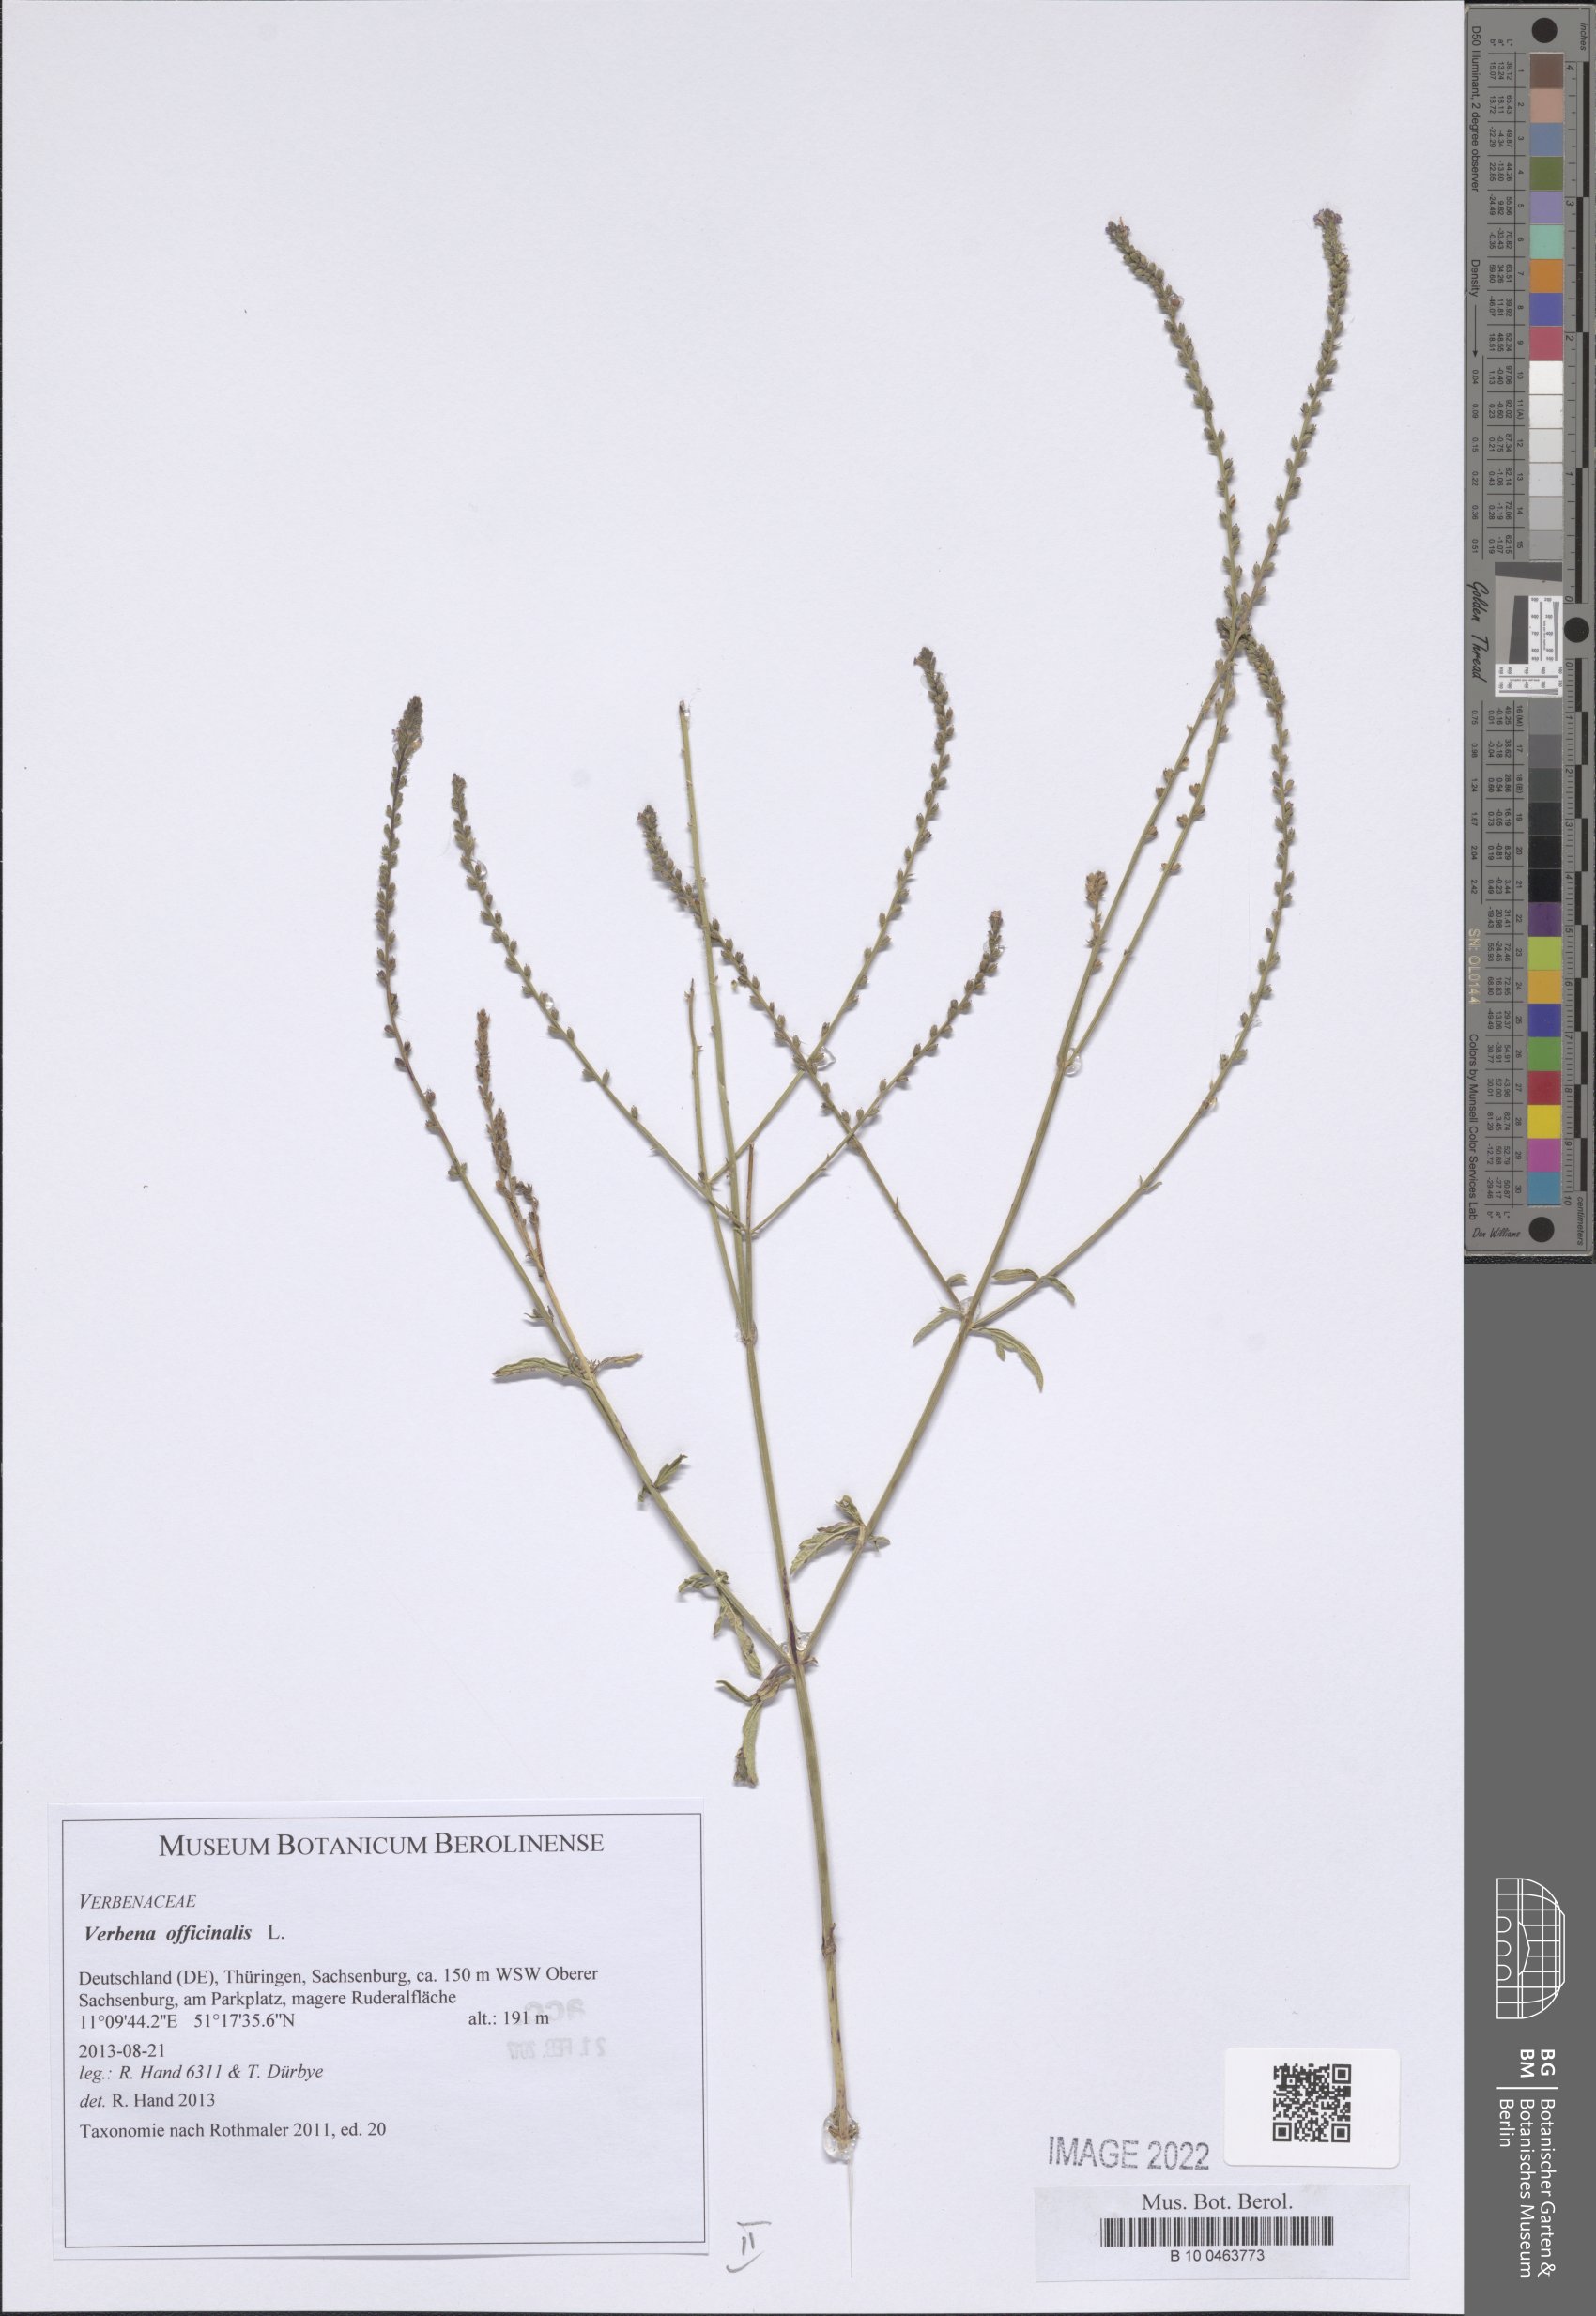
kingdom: Plantae
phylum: Tracheophyta
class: Magnoliopsida
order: Lamiales
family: Verbenaceae
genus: Verbena
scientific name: Verbena officinalis
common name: Vervain
